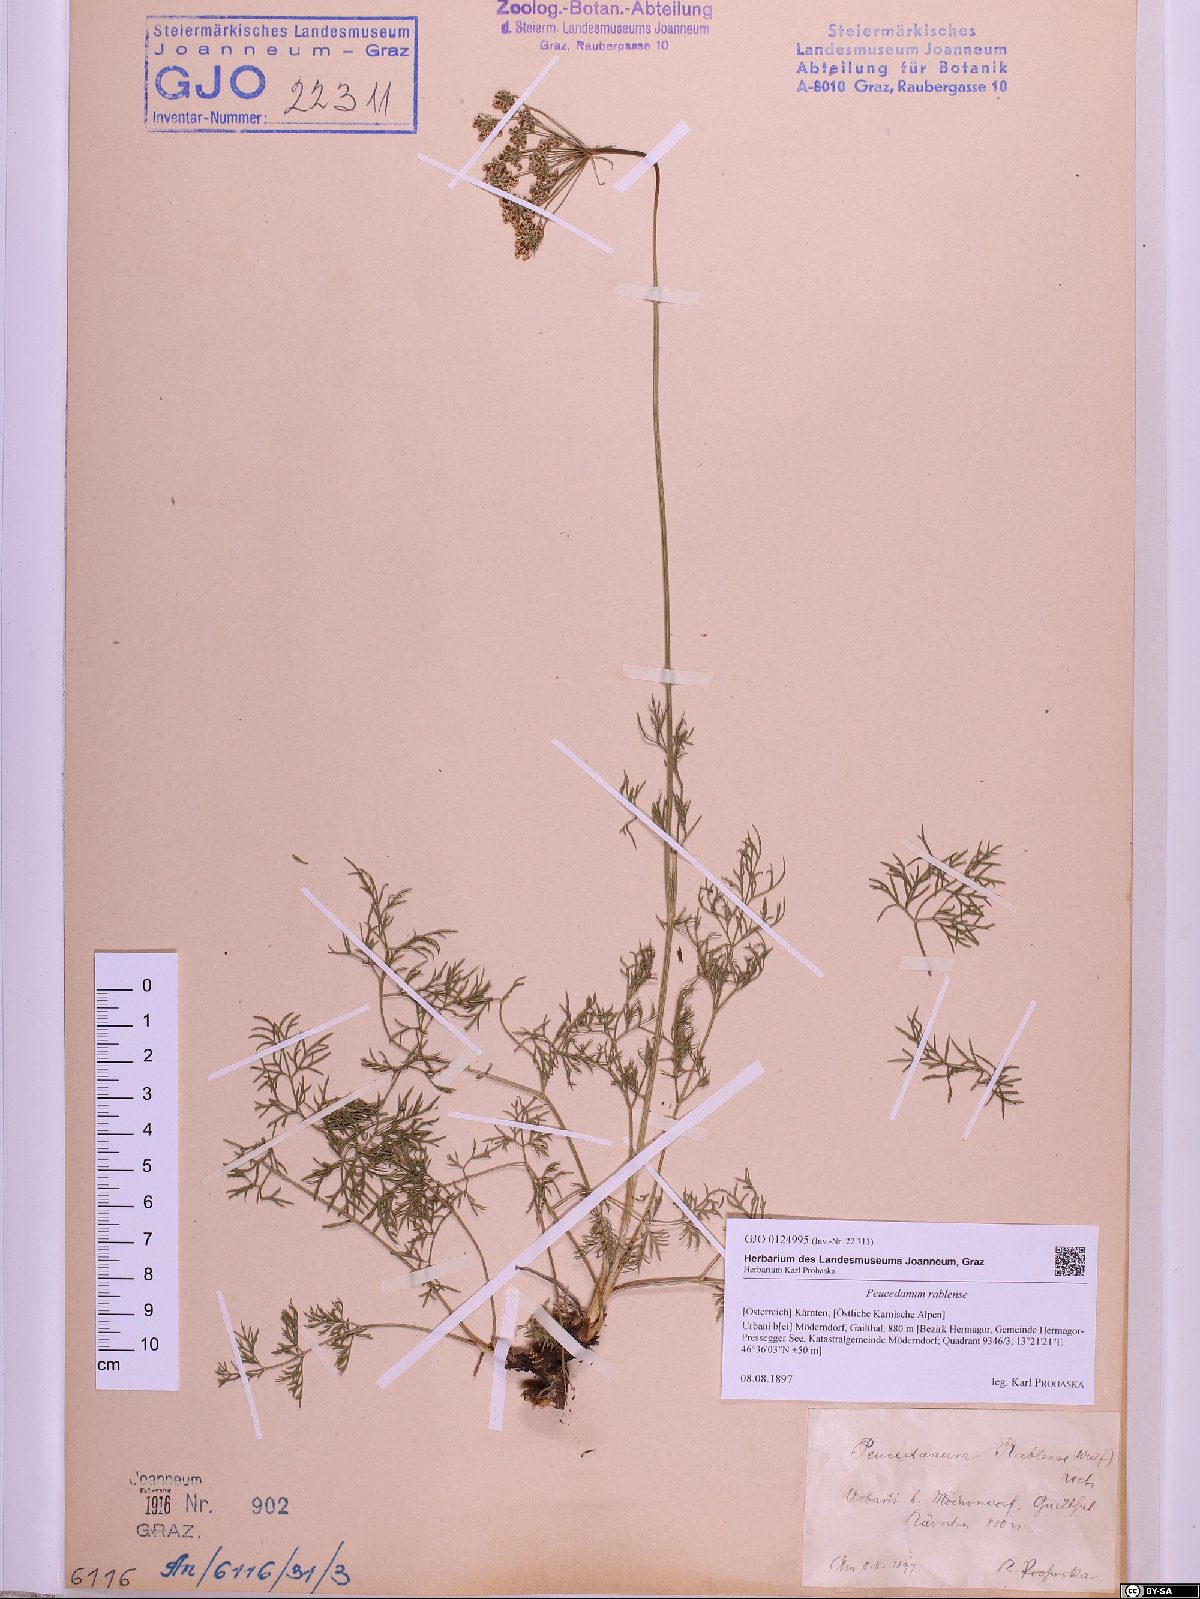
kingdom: Plantae
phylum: Tracheophyta
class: Magnoliopsida
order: Apiales
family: Apiaceae
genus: Peucedanum
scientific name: Peucedanum rablense
